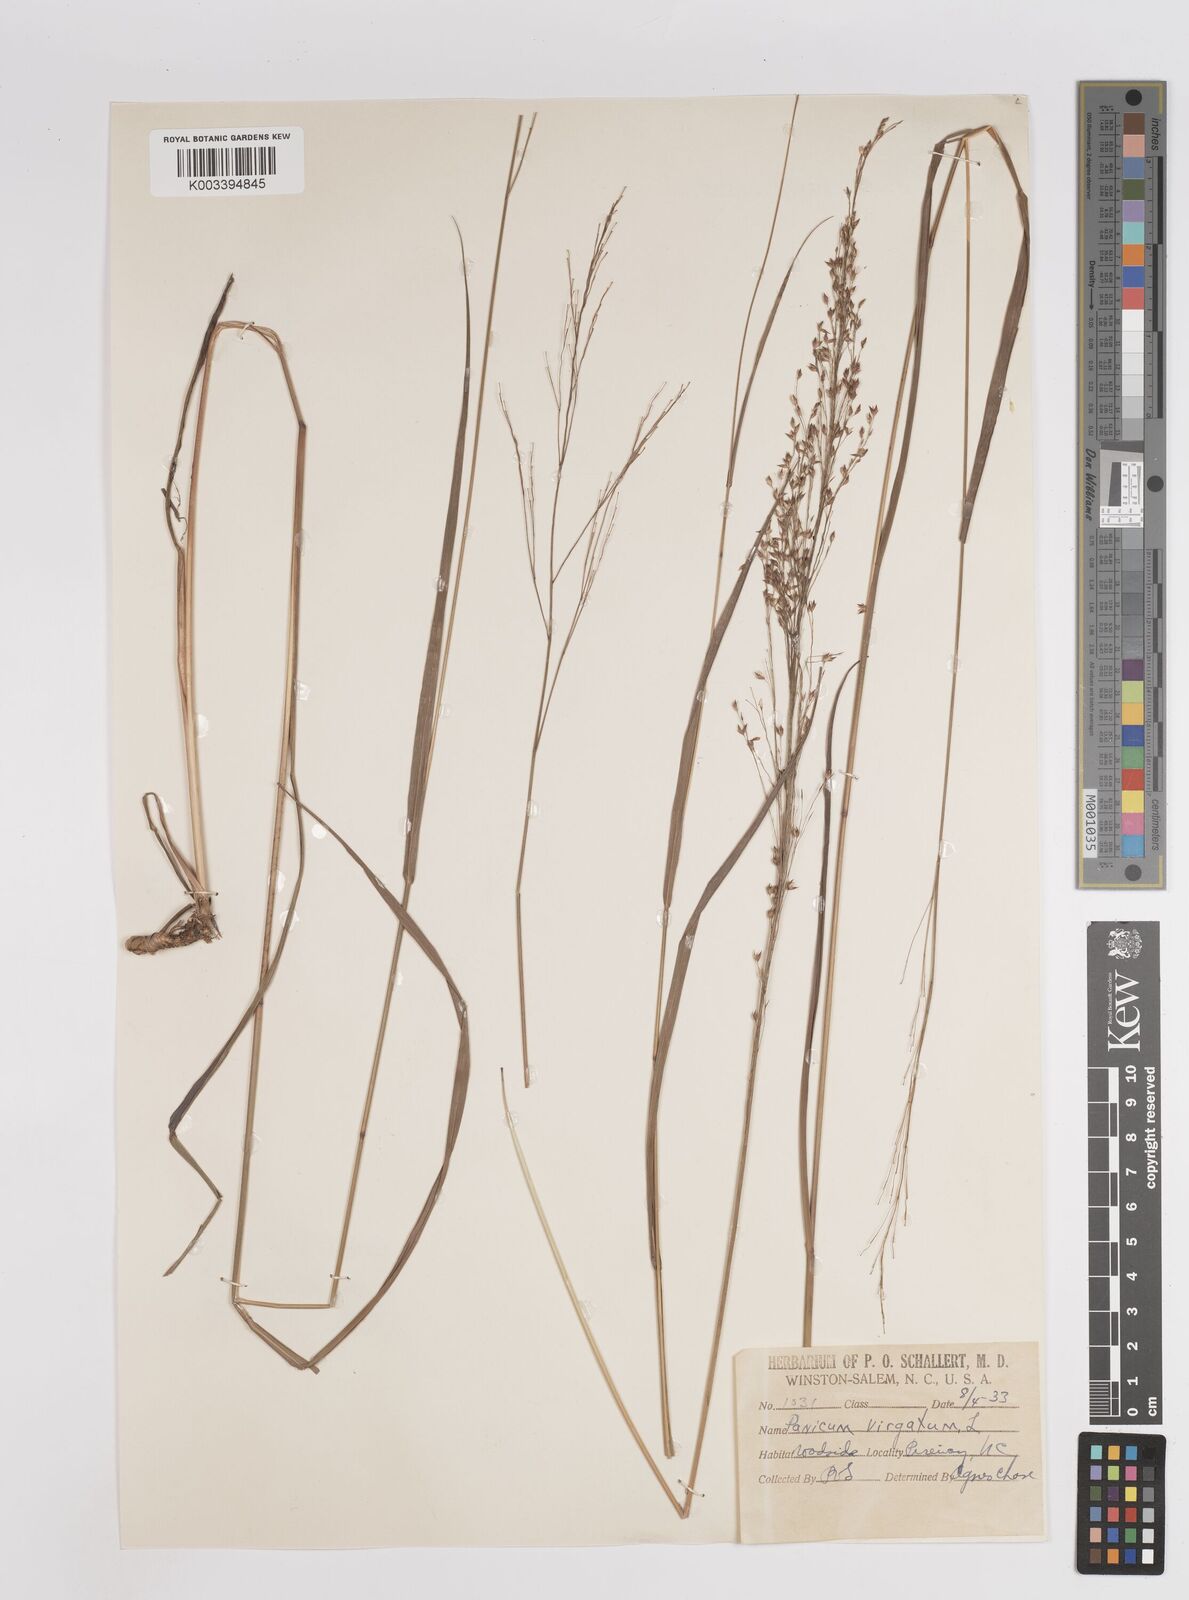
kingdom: Plantae
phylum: Tracheophyta
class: Liliopsida
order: Poales
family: Poaceae
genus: Panicum
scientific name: Panicum virgatum
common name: Switchgrass
